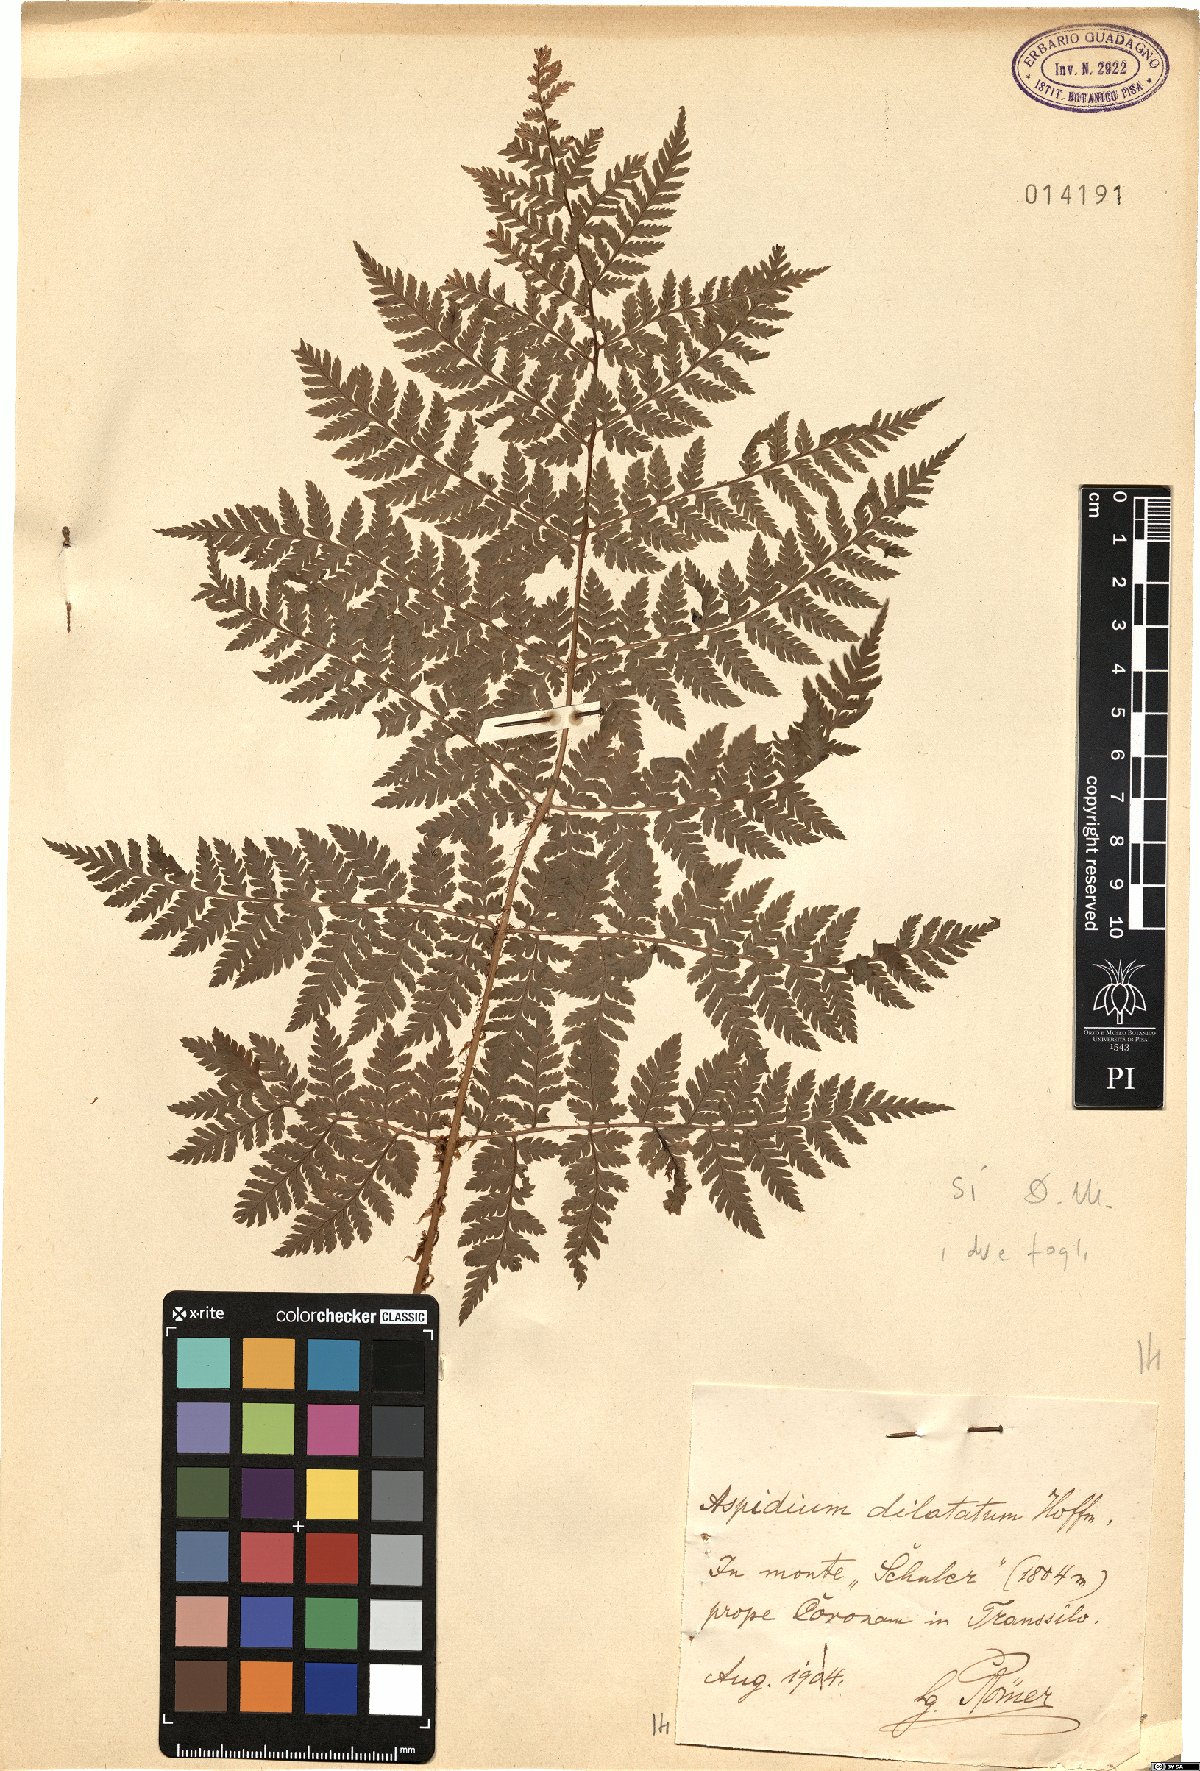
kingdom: Plantae
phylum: Tracheophyta
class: Polypodiopsida
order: Polypodiales
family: Dryopteridaceae
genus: Dryopteris
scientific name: Dryopteris dilatata
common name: Broad buckler-fern
